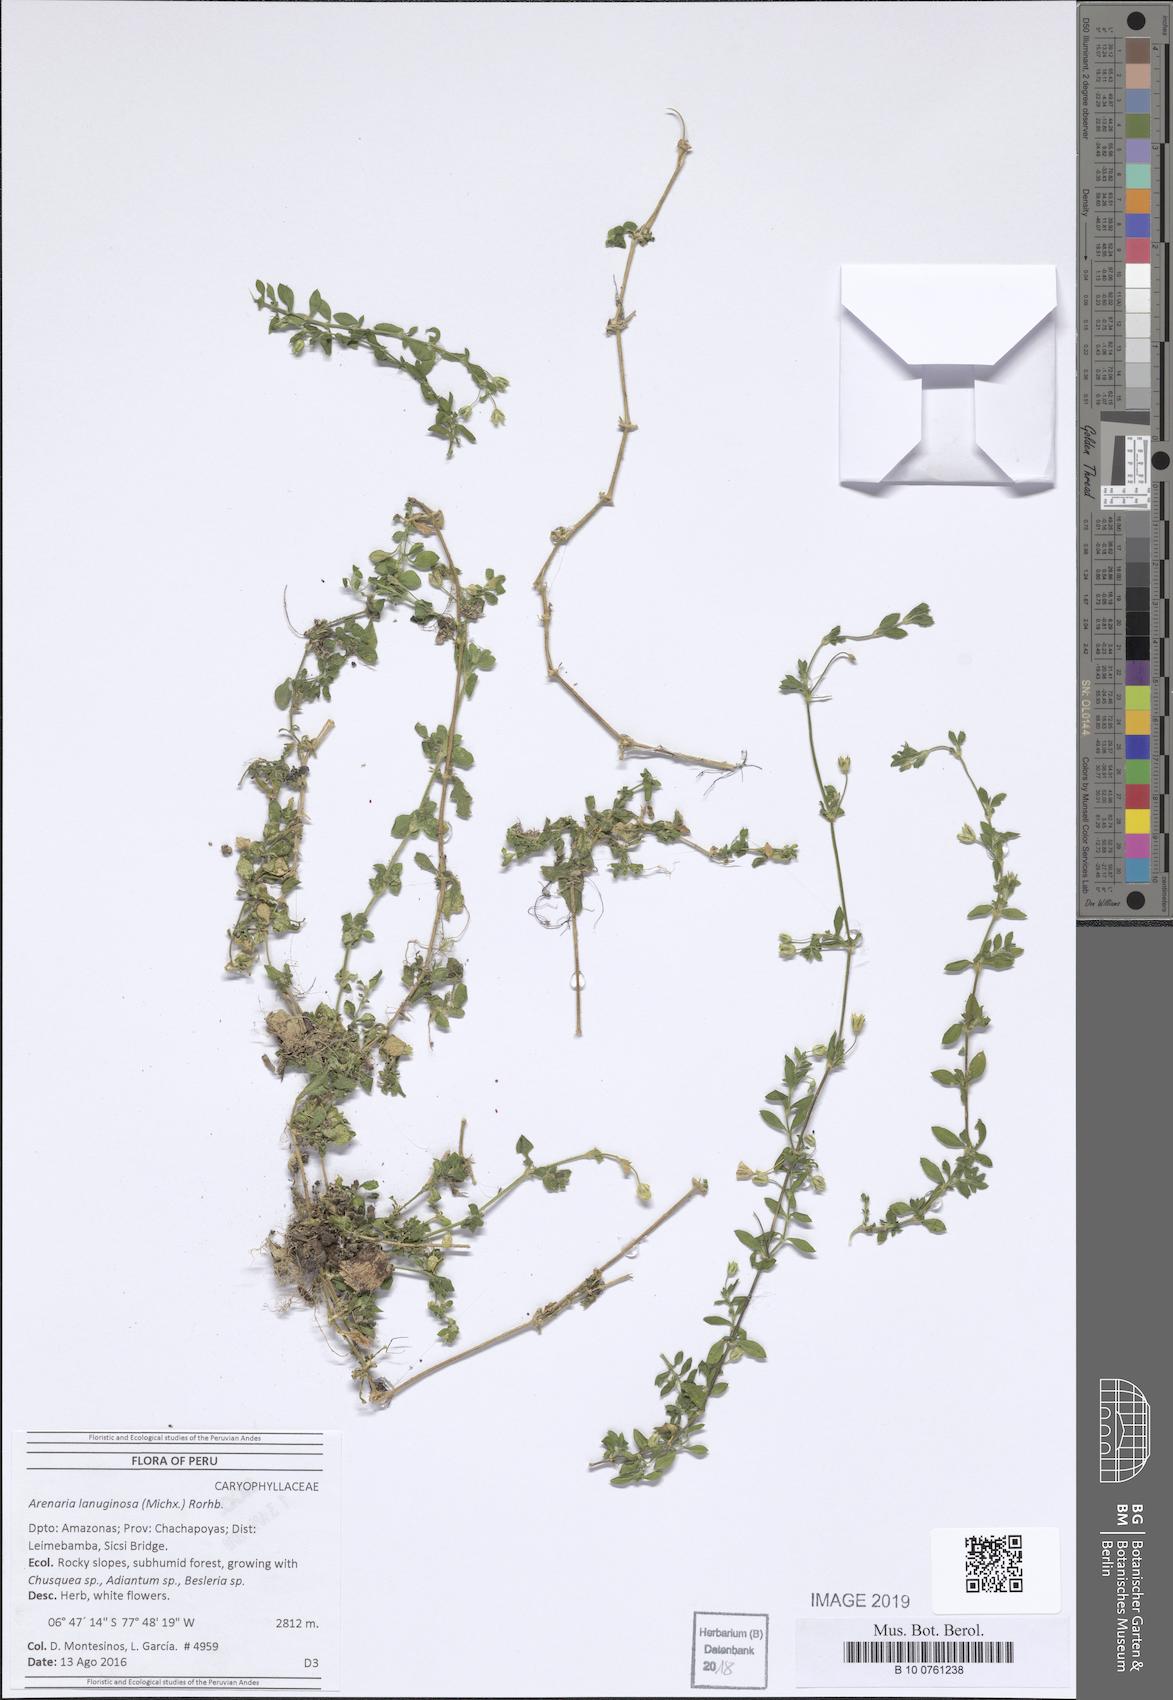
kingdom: Plantae
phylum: Tracheophyta
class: Magnoliopsida
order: Caryophyllales
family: Caryophyllaceae
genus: Arenaria
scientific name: Arenaria lanuginosa
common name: Spread sandwort
